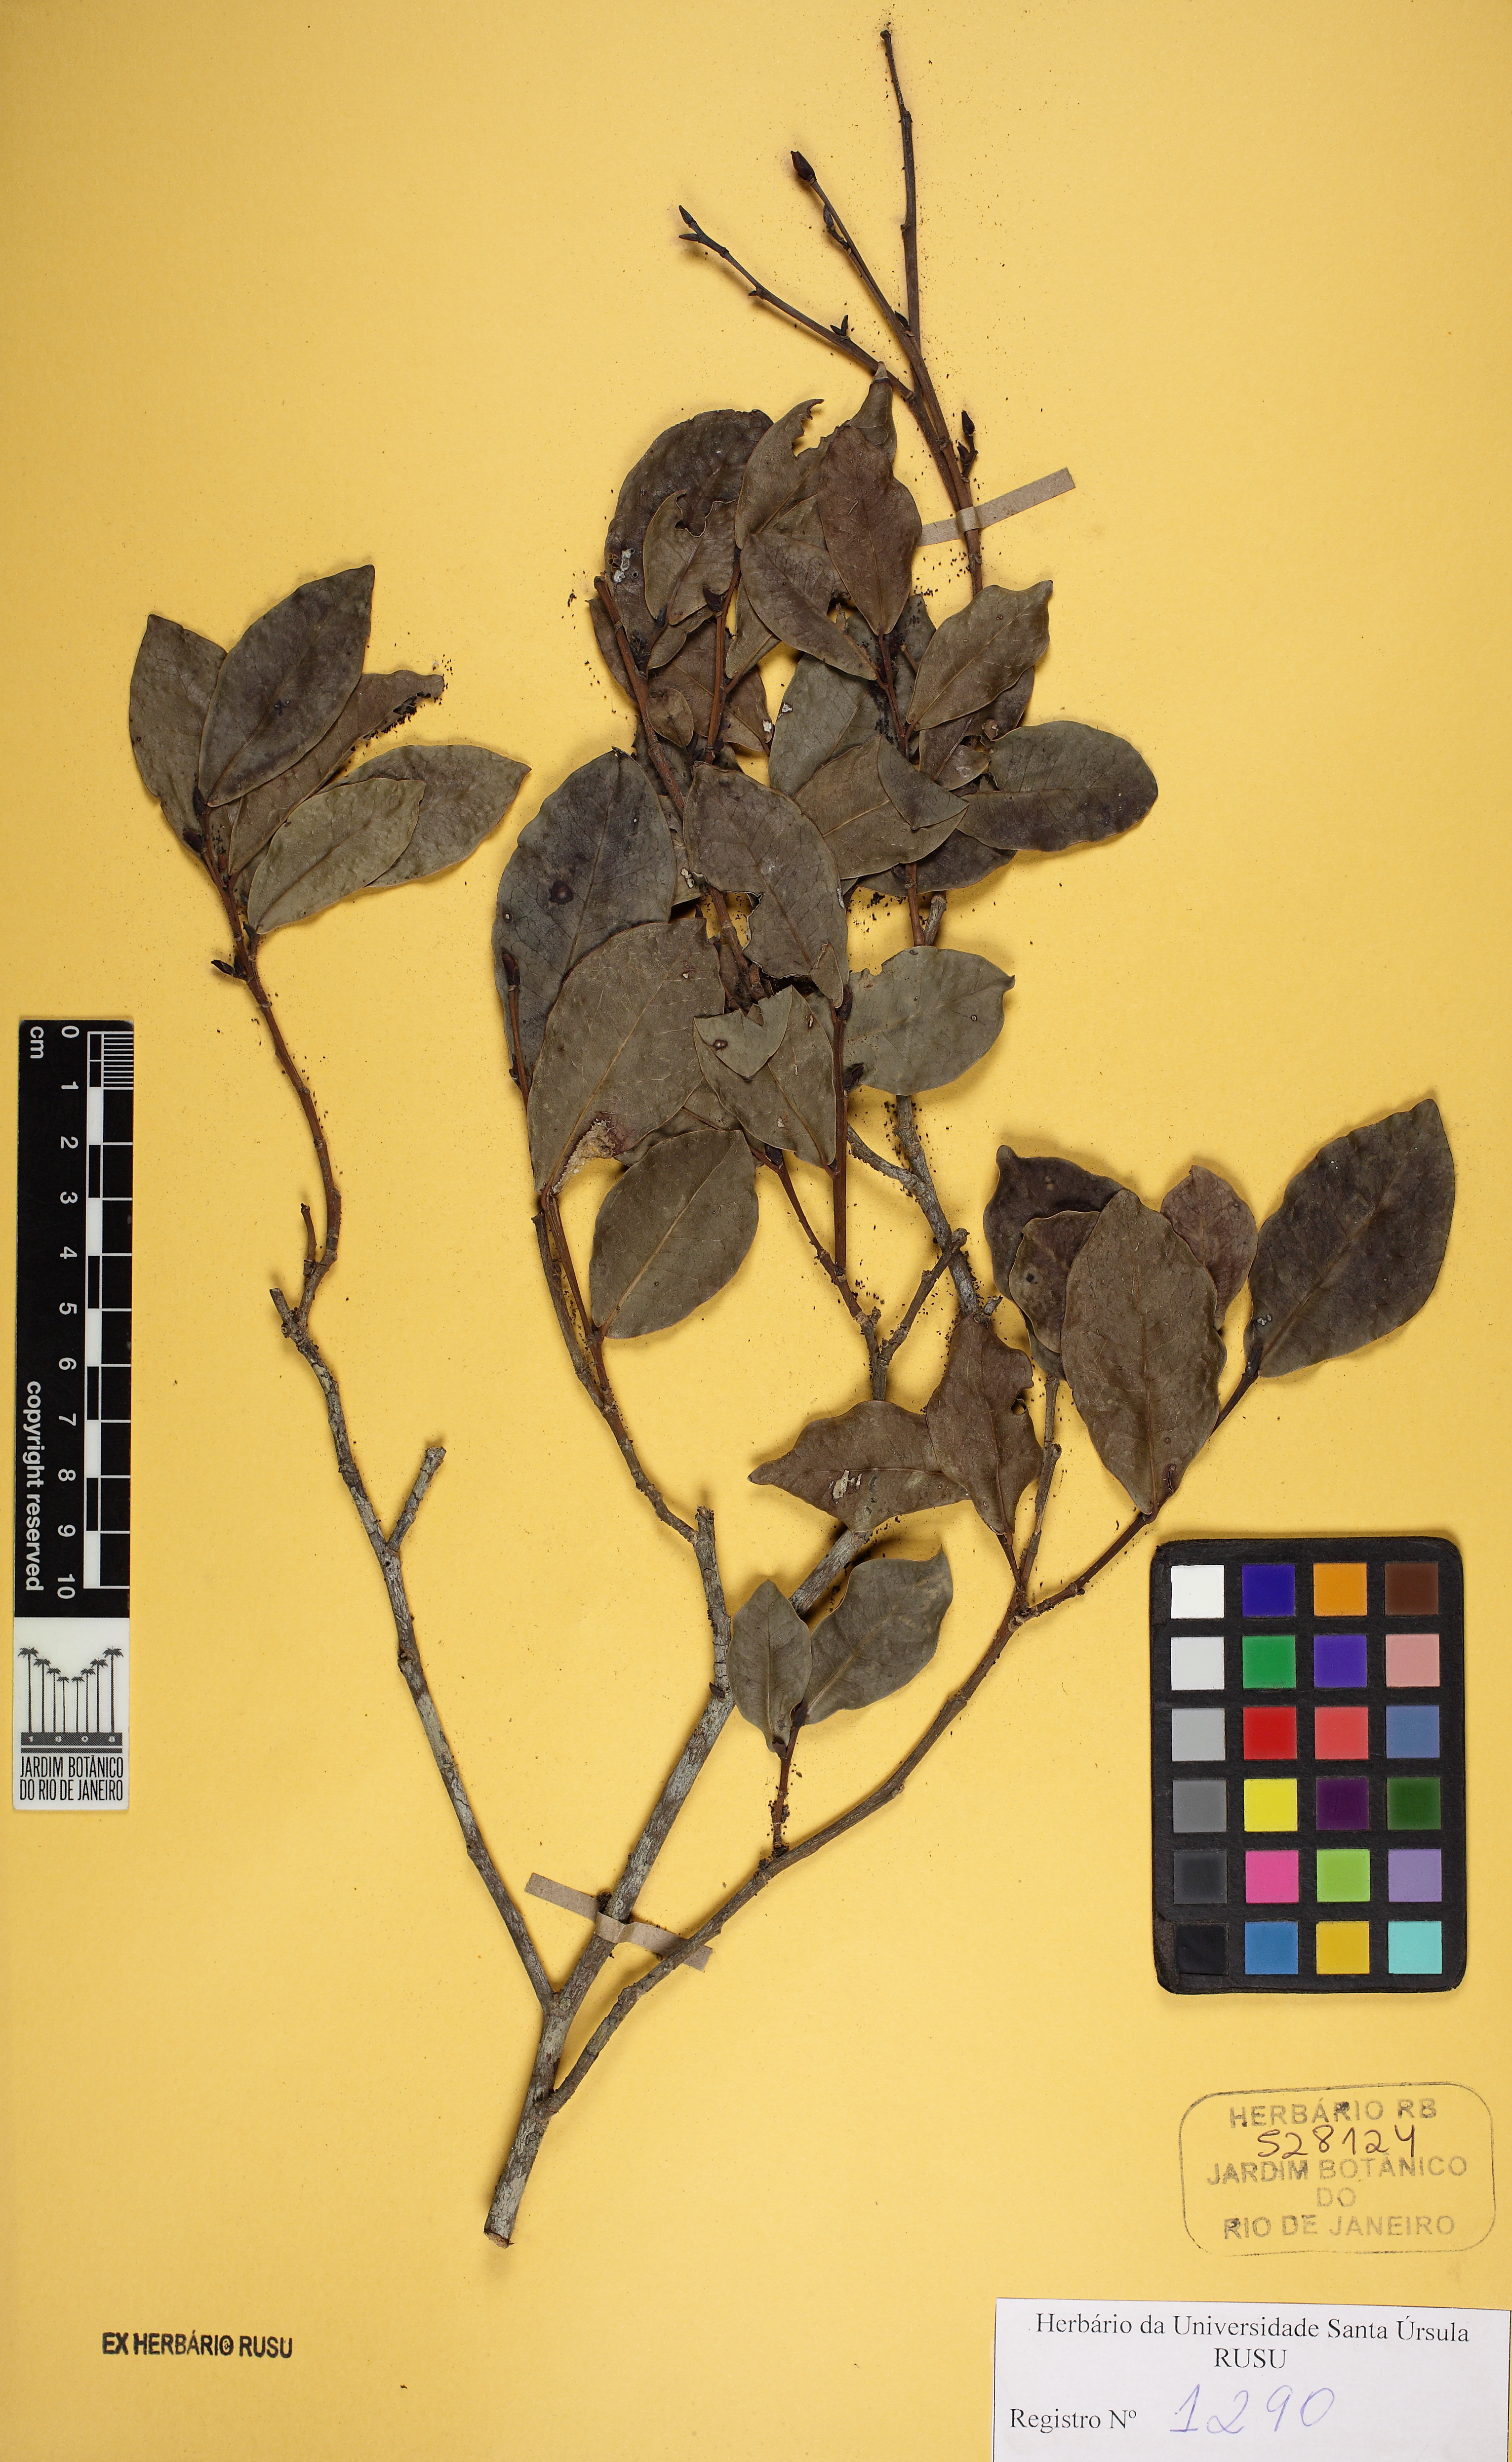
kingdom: Plantae
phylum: Tracheophyta
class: Magnoliopsida
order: Malpighiales
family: Euphorbiaceae
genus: Actinostemon
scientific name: Actinostemon concolor
